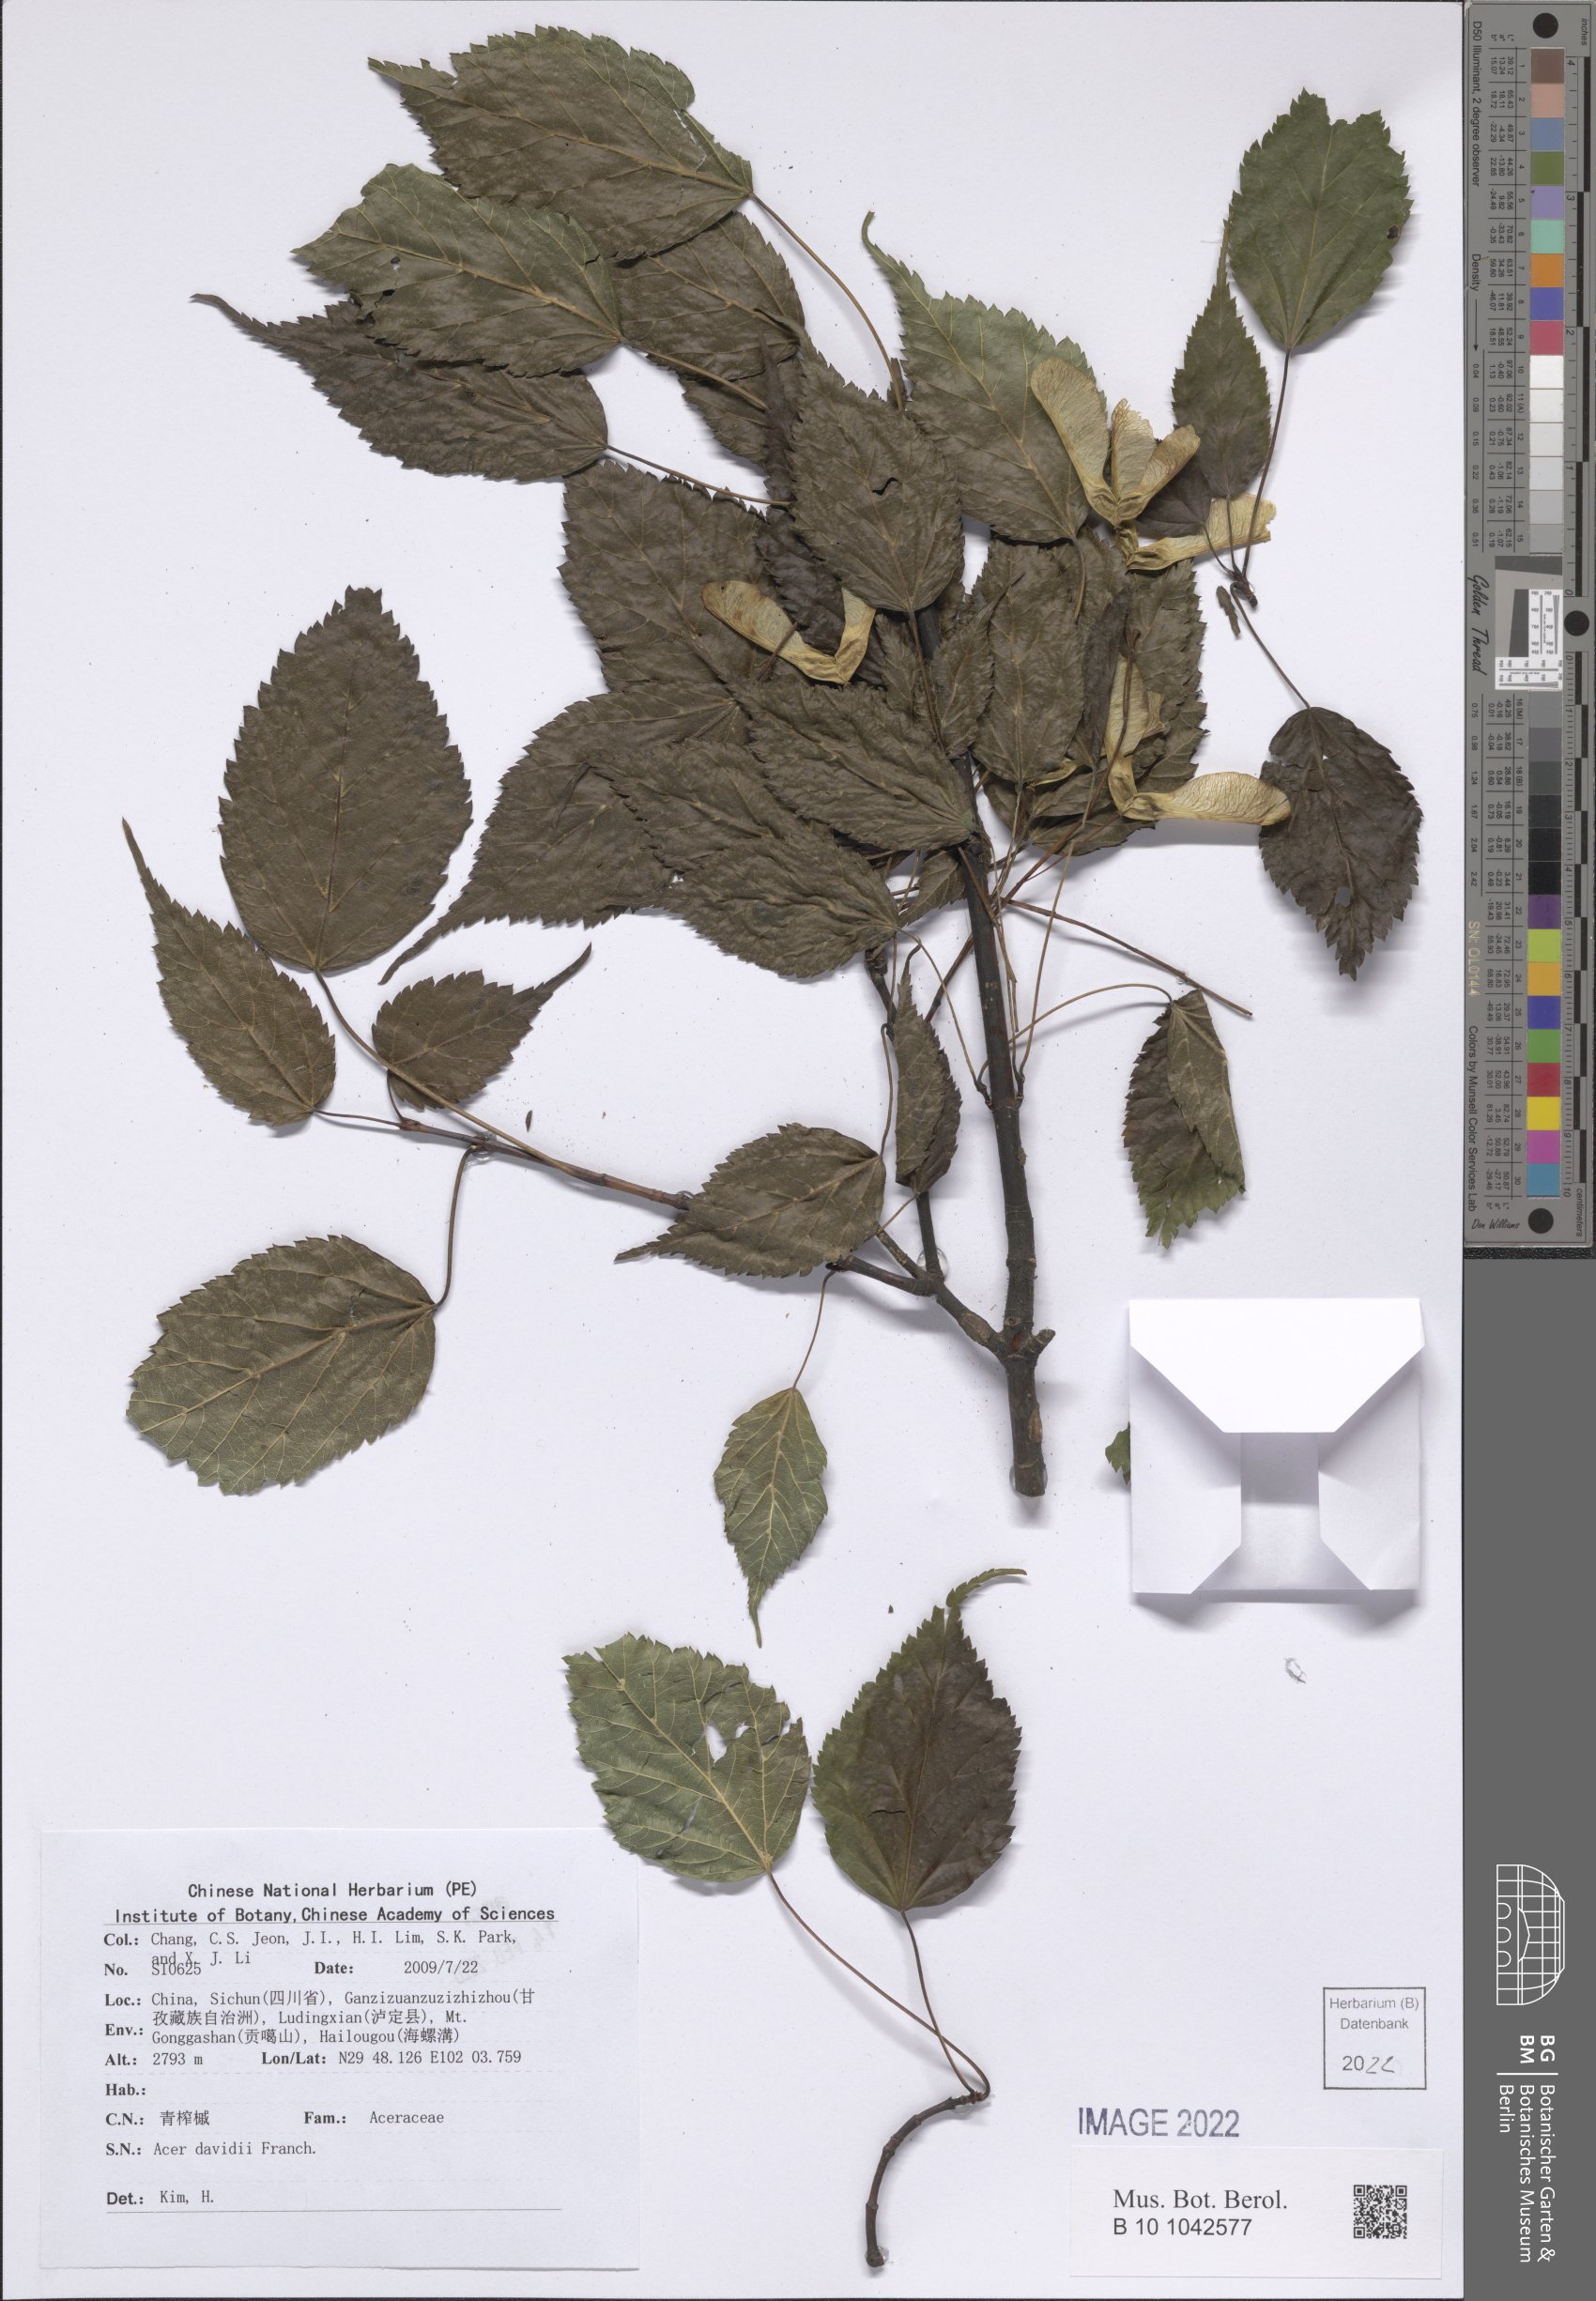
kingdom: Plantae
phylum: Tracheophyta
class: Magnoliopsida
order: Sapindales
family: Sapindaceae
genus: Acer
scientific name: Acer davidii
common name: Father david's maple
